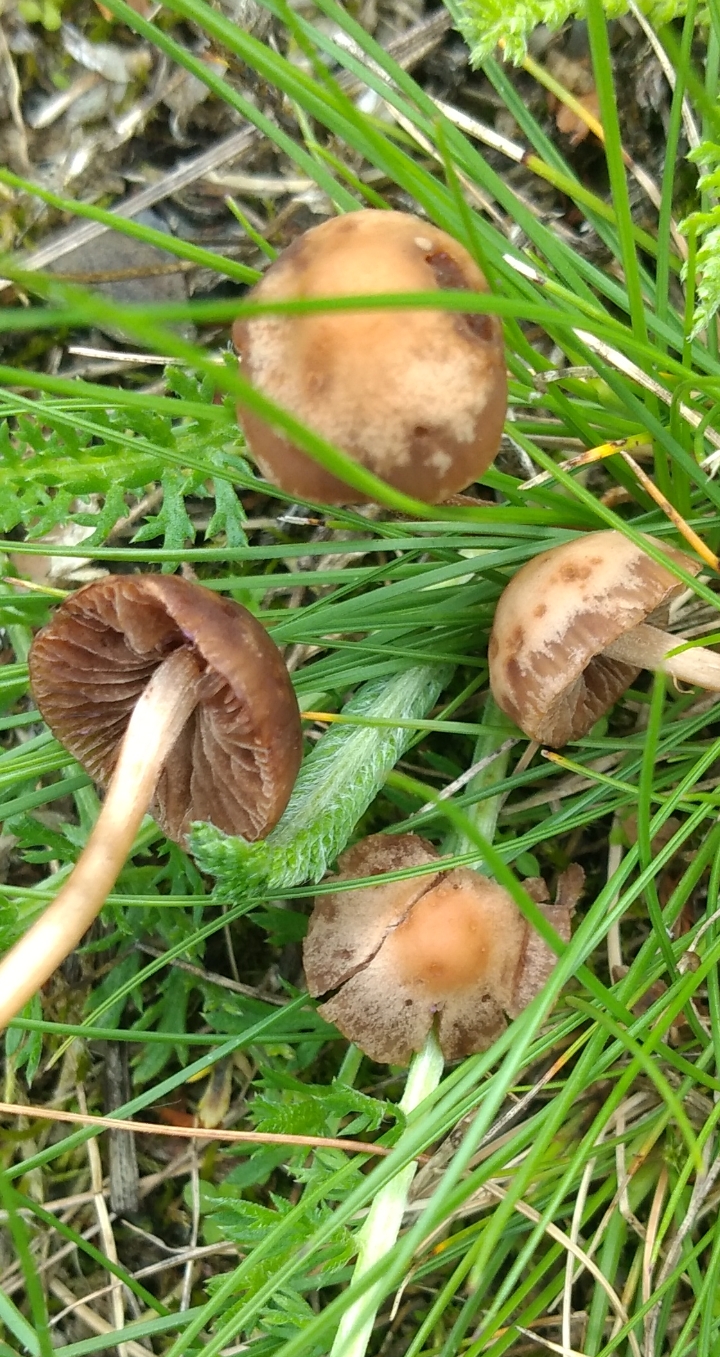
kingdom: Fungi
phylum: Basidiomycota
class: Agaricomycetes
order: Agaricales
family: Bolbitiaceae
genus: Panaeolina
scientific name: Panaeolina foenisecii
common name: høslætsvamp
